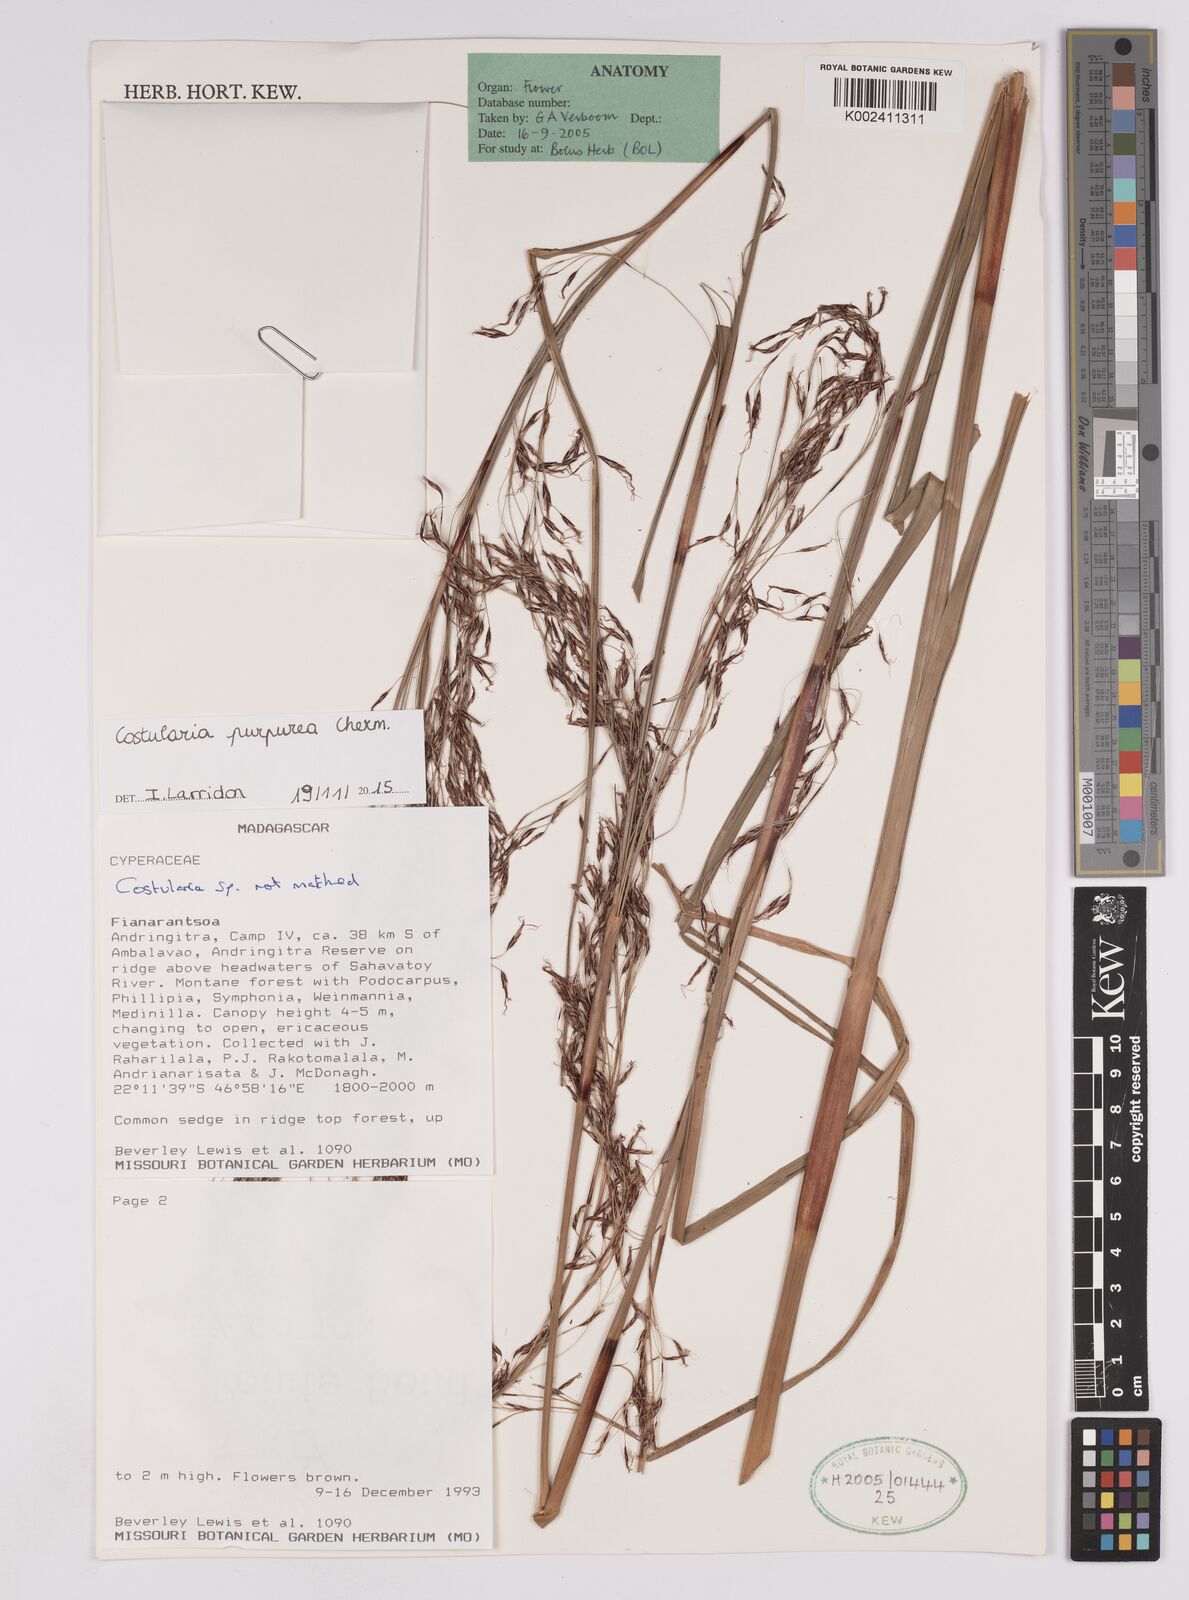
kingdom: Plantae
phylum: Tracheophyta
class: Liliopsida
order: Poales
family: Cyperaceae
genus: Costularia
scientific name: Costularia purpurea
